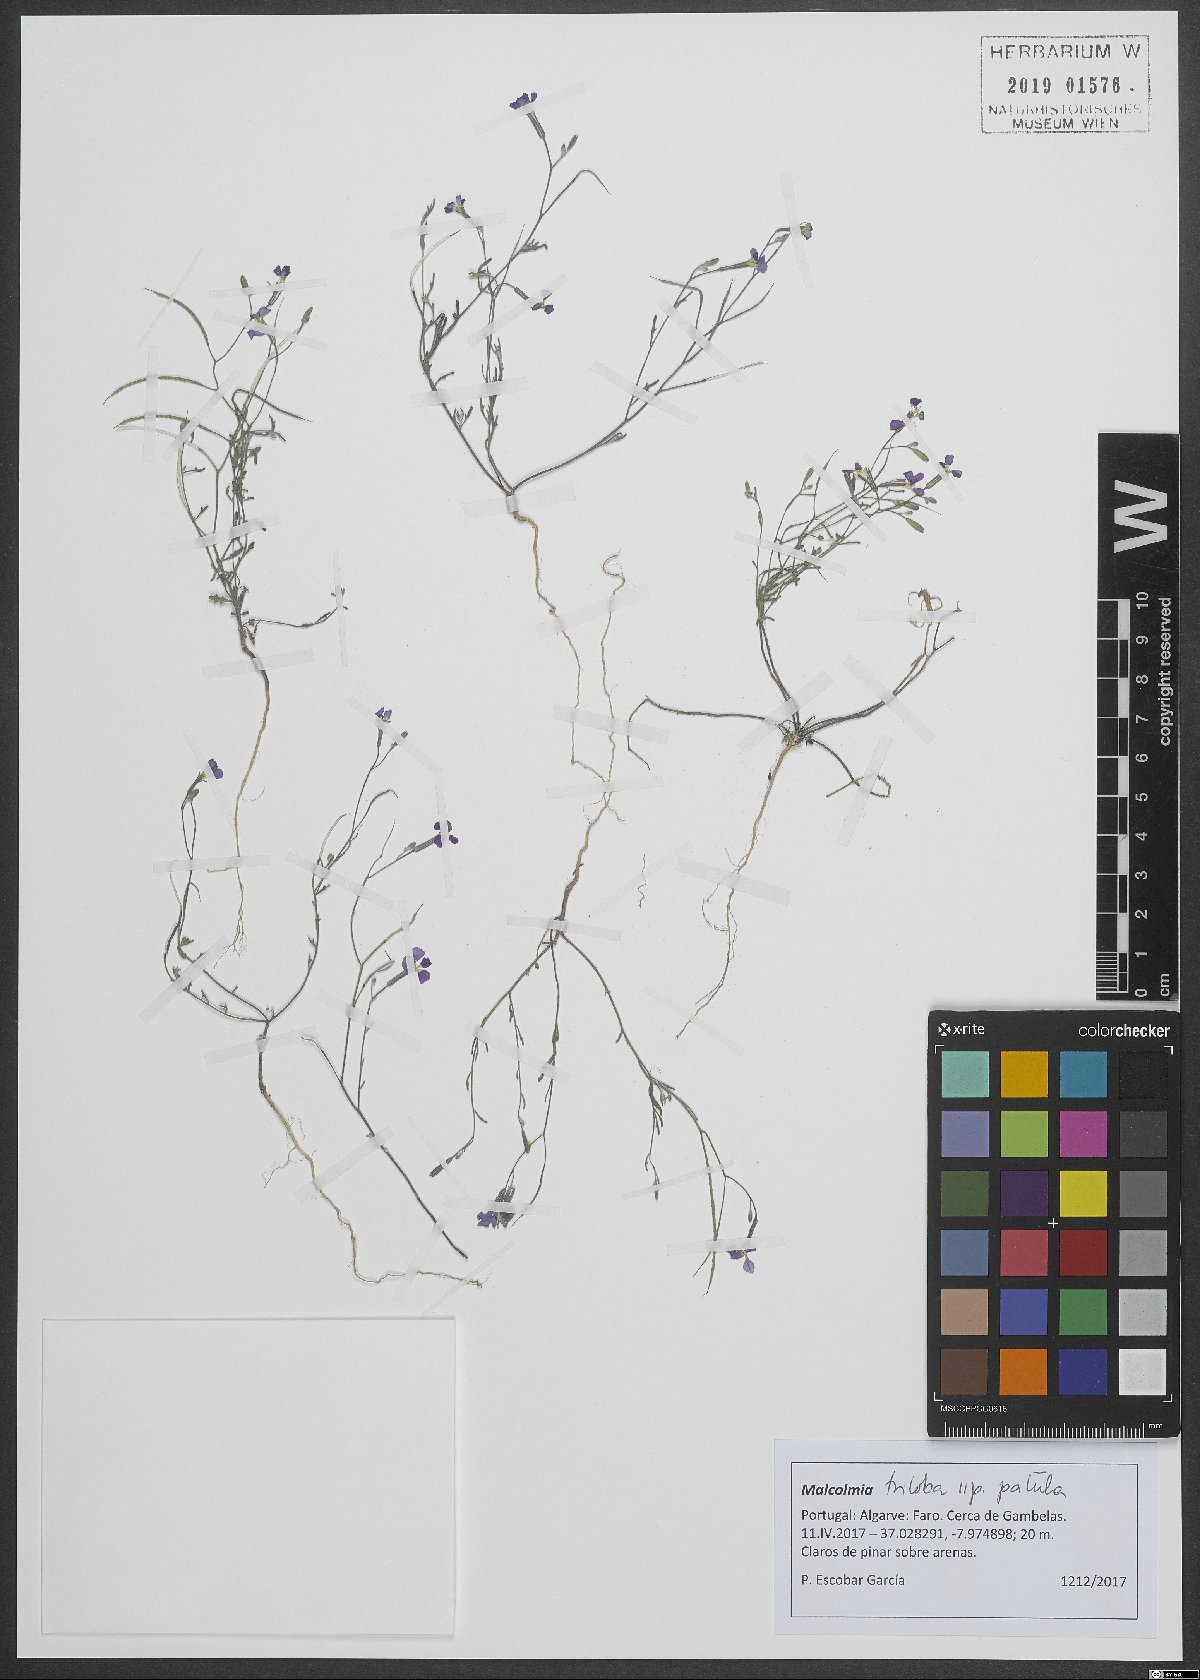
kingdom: Plantae
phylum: Tracheophyta
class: Magnoliopsida
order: Brassicales
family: Brassicaceae
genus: Marcuskochia
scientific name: Marcuskochia triloba
